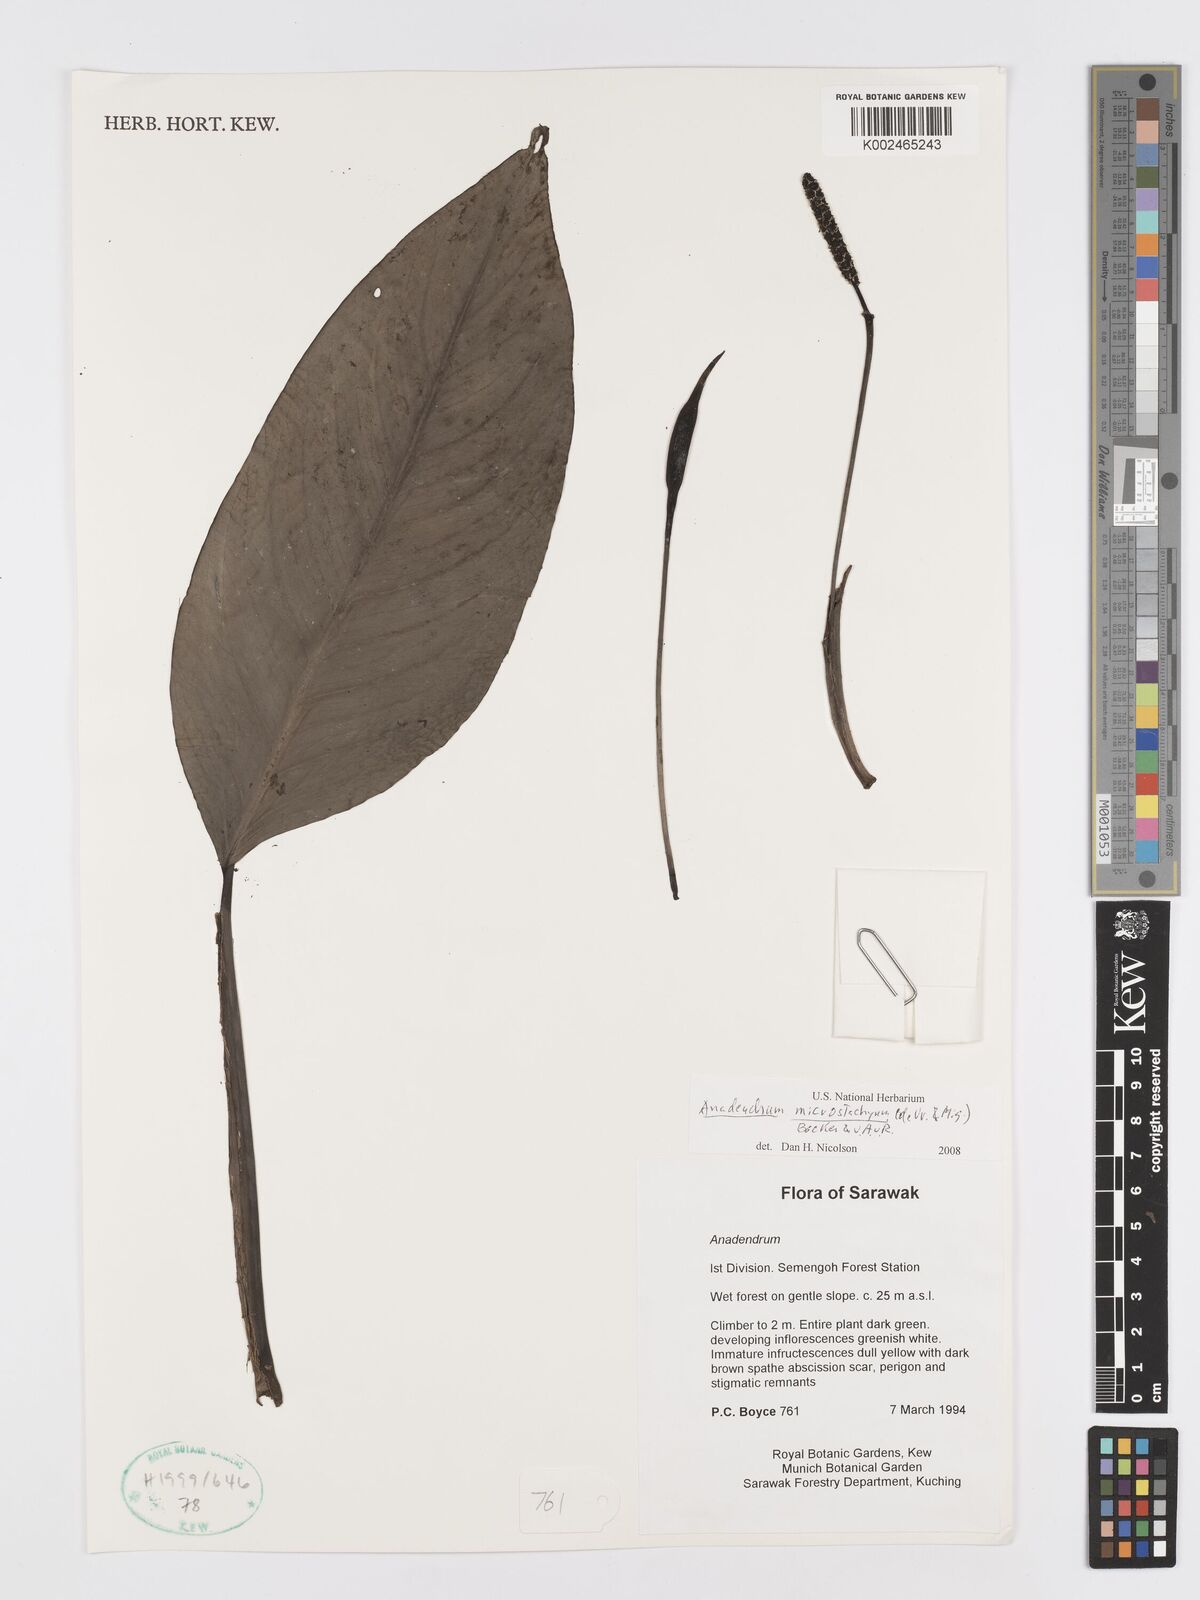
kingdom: Plantae
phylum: Tracheophyta
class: Liliopsida
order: Alismatales
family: Araceae
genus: Anadendrum
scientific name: Anadendrum microstachyum
